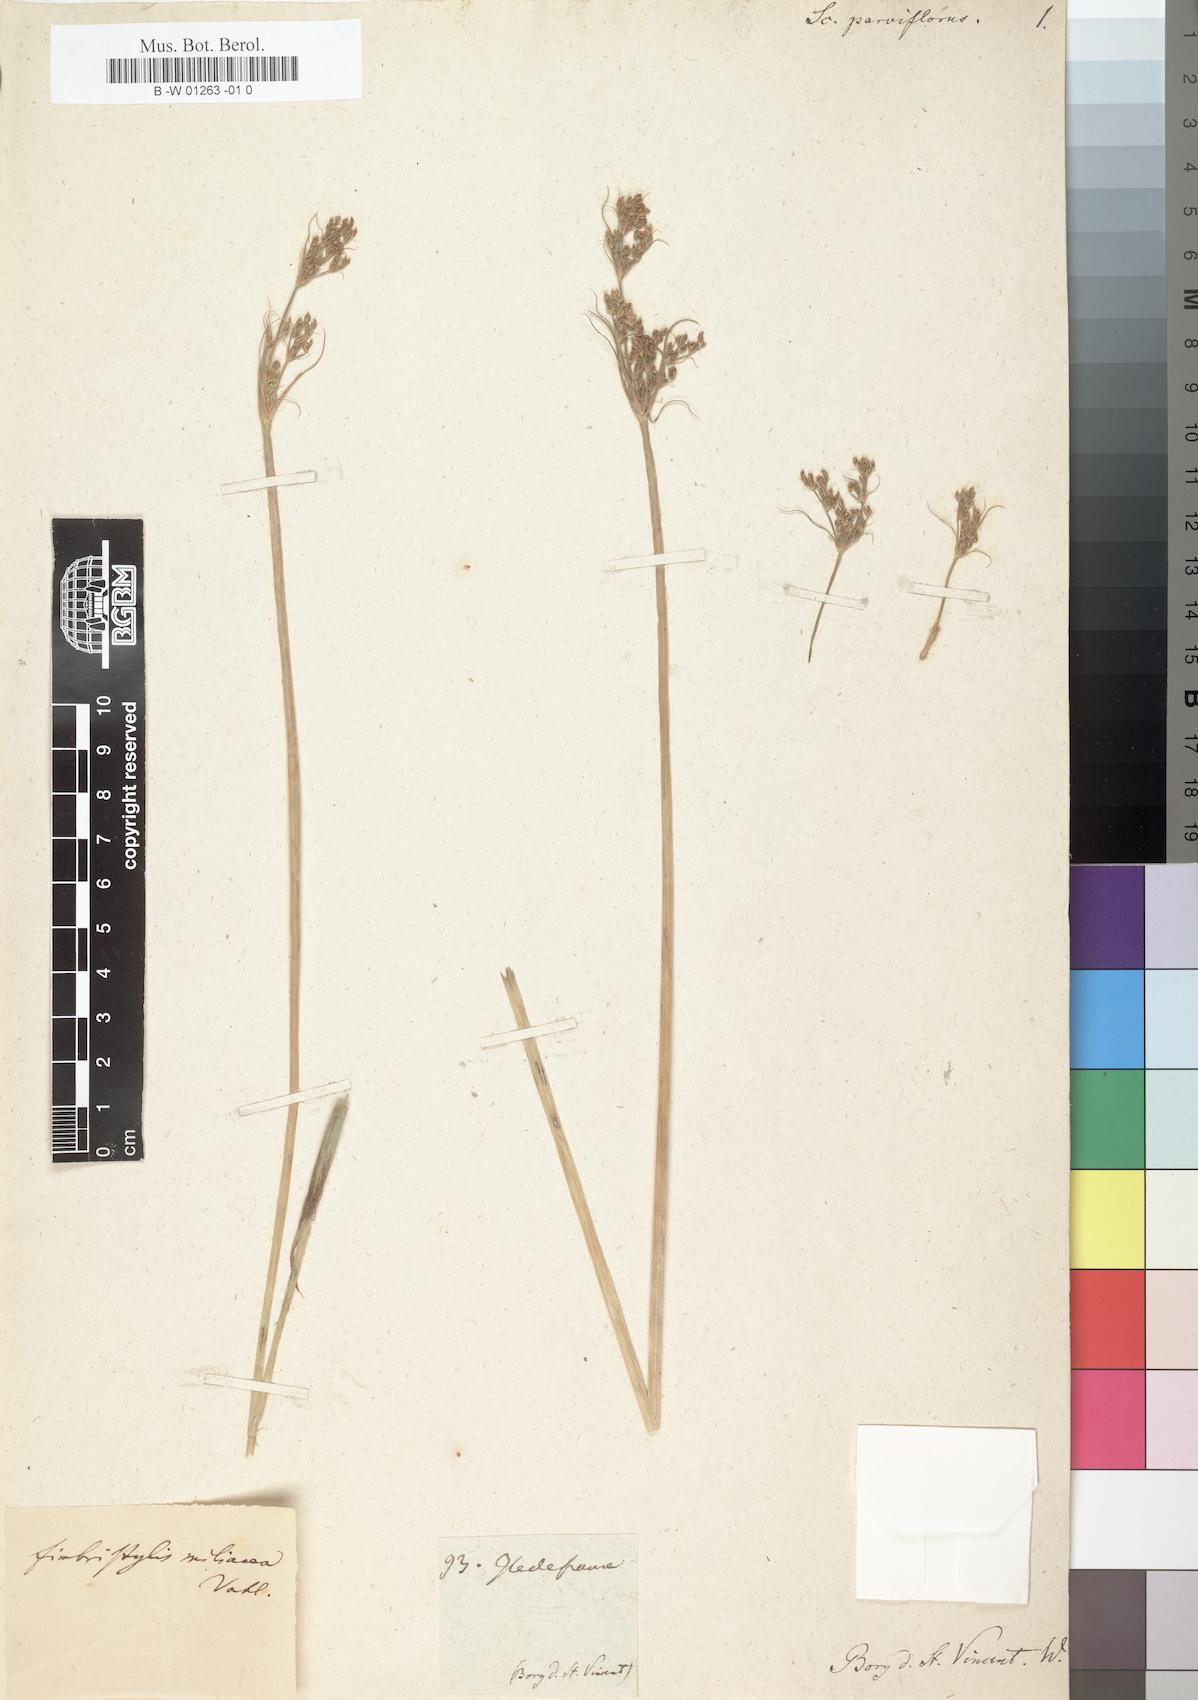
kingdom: Plantae
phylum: Tracheophyta
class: Liliopsida
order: Poales
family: Cyperaceae
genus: Fimbristylis
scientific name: Fimbristylis
